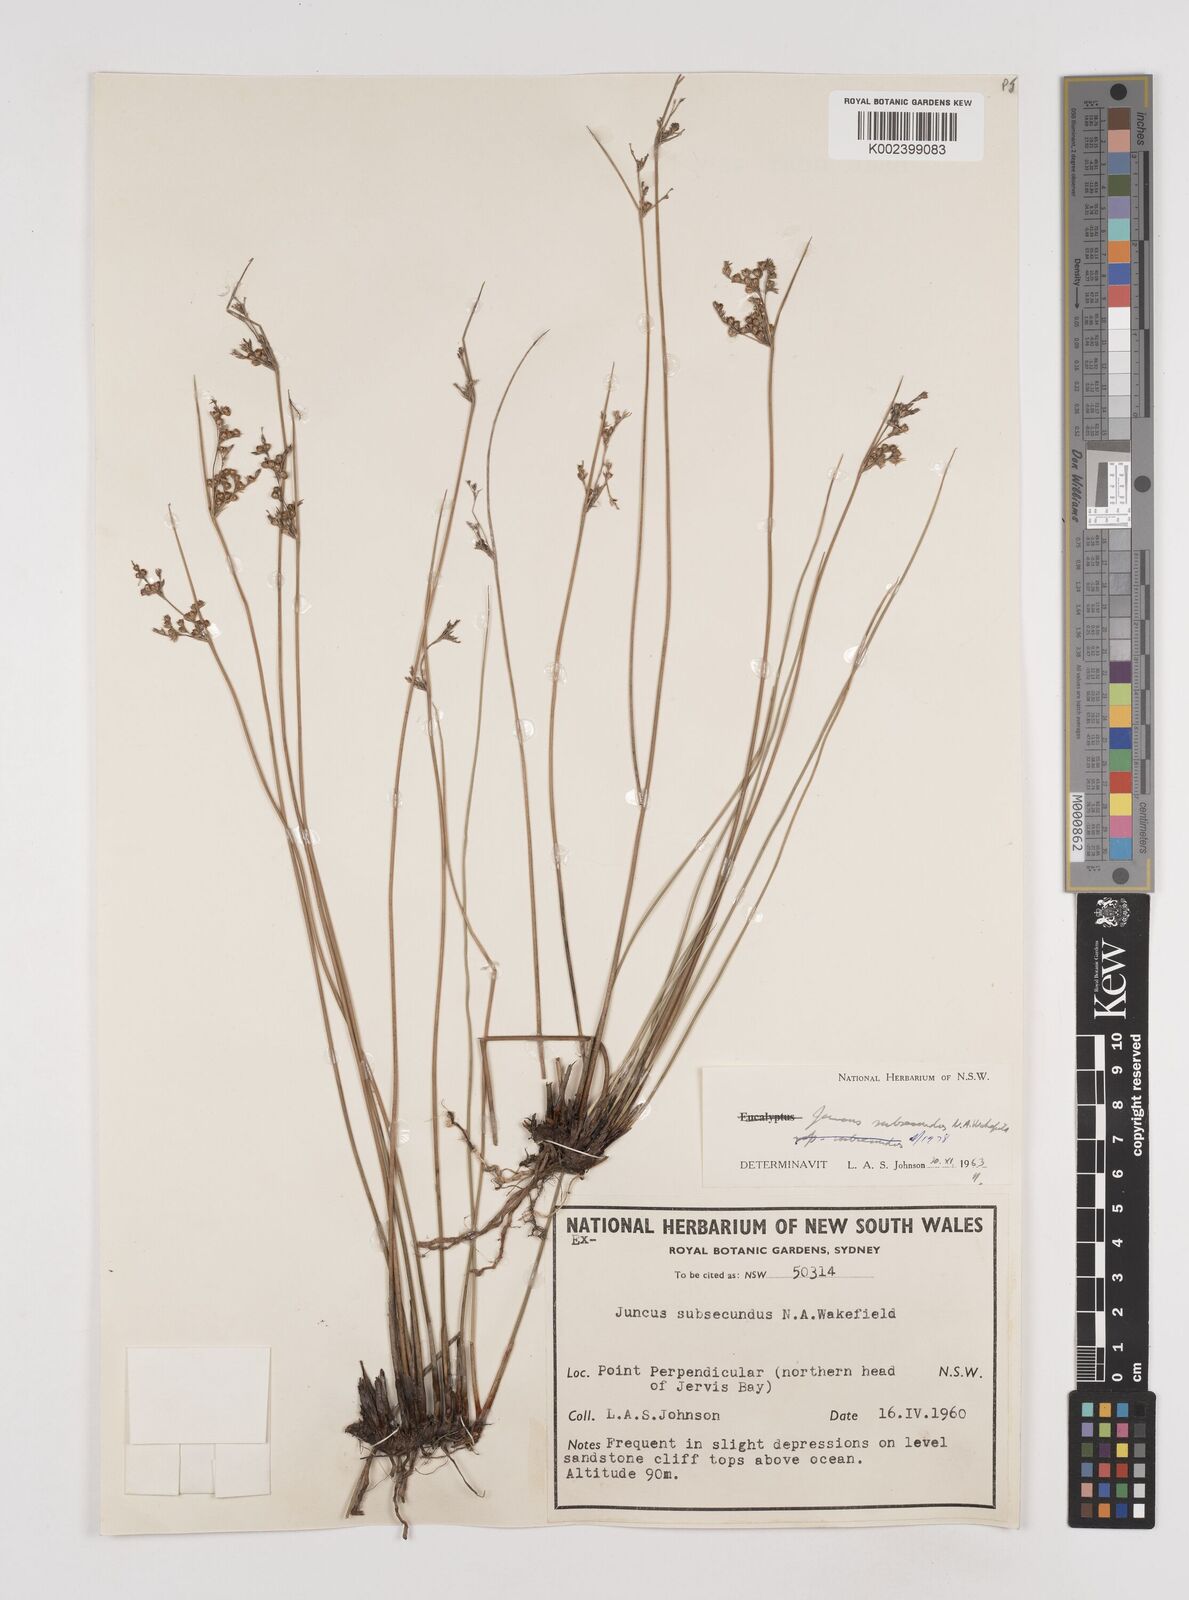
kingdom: Plantae
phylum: Tracheophyta
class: Liliopsida
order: Poales
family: Juncaceae
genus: Juncus
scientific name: Juncus subsecundus
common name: Fingered rush
